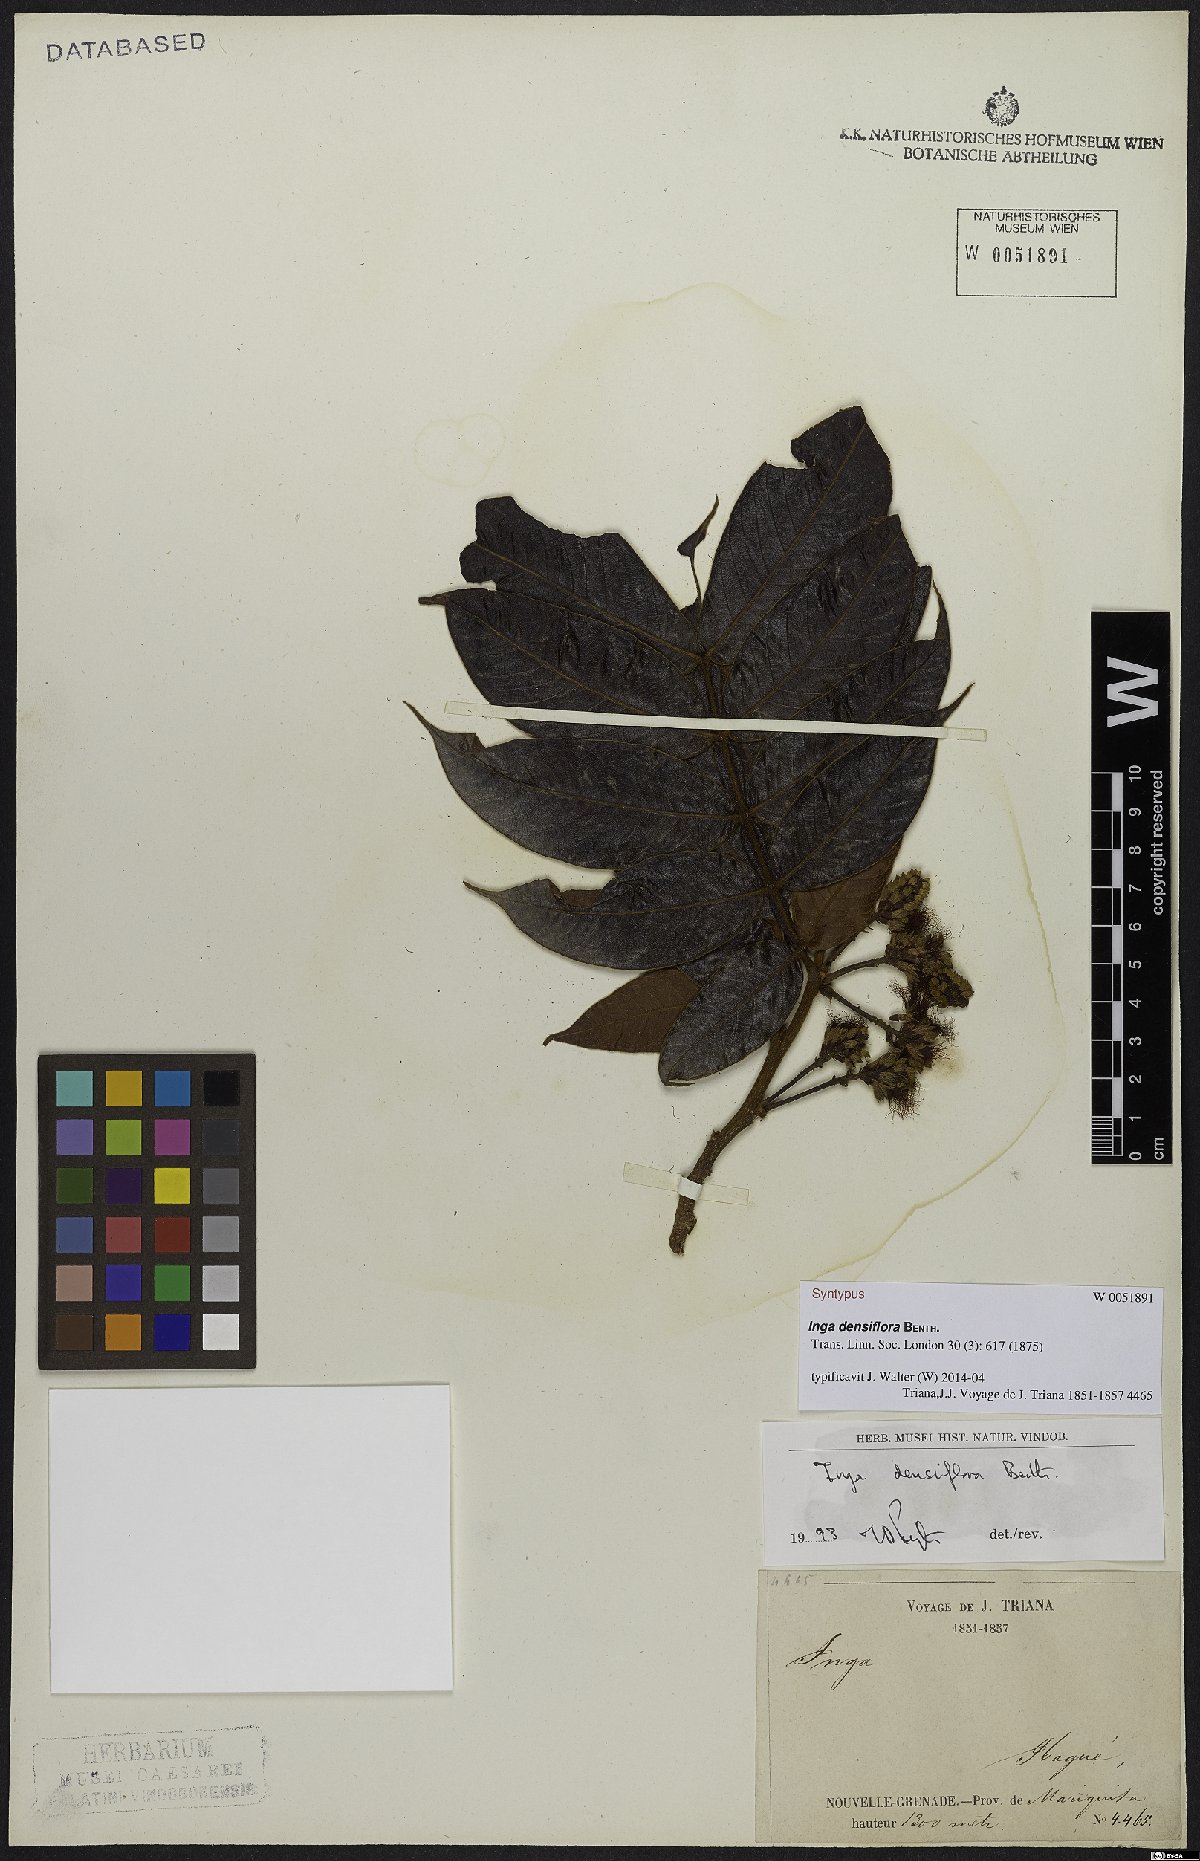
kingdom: Plantae
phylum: Tracheophyta
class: Magnoliopsida
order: Fabales
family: Fabaceae
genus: Inga
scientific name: Inga densiflora
